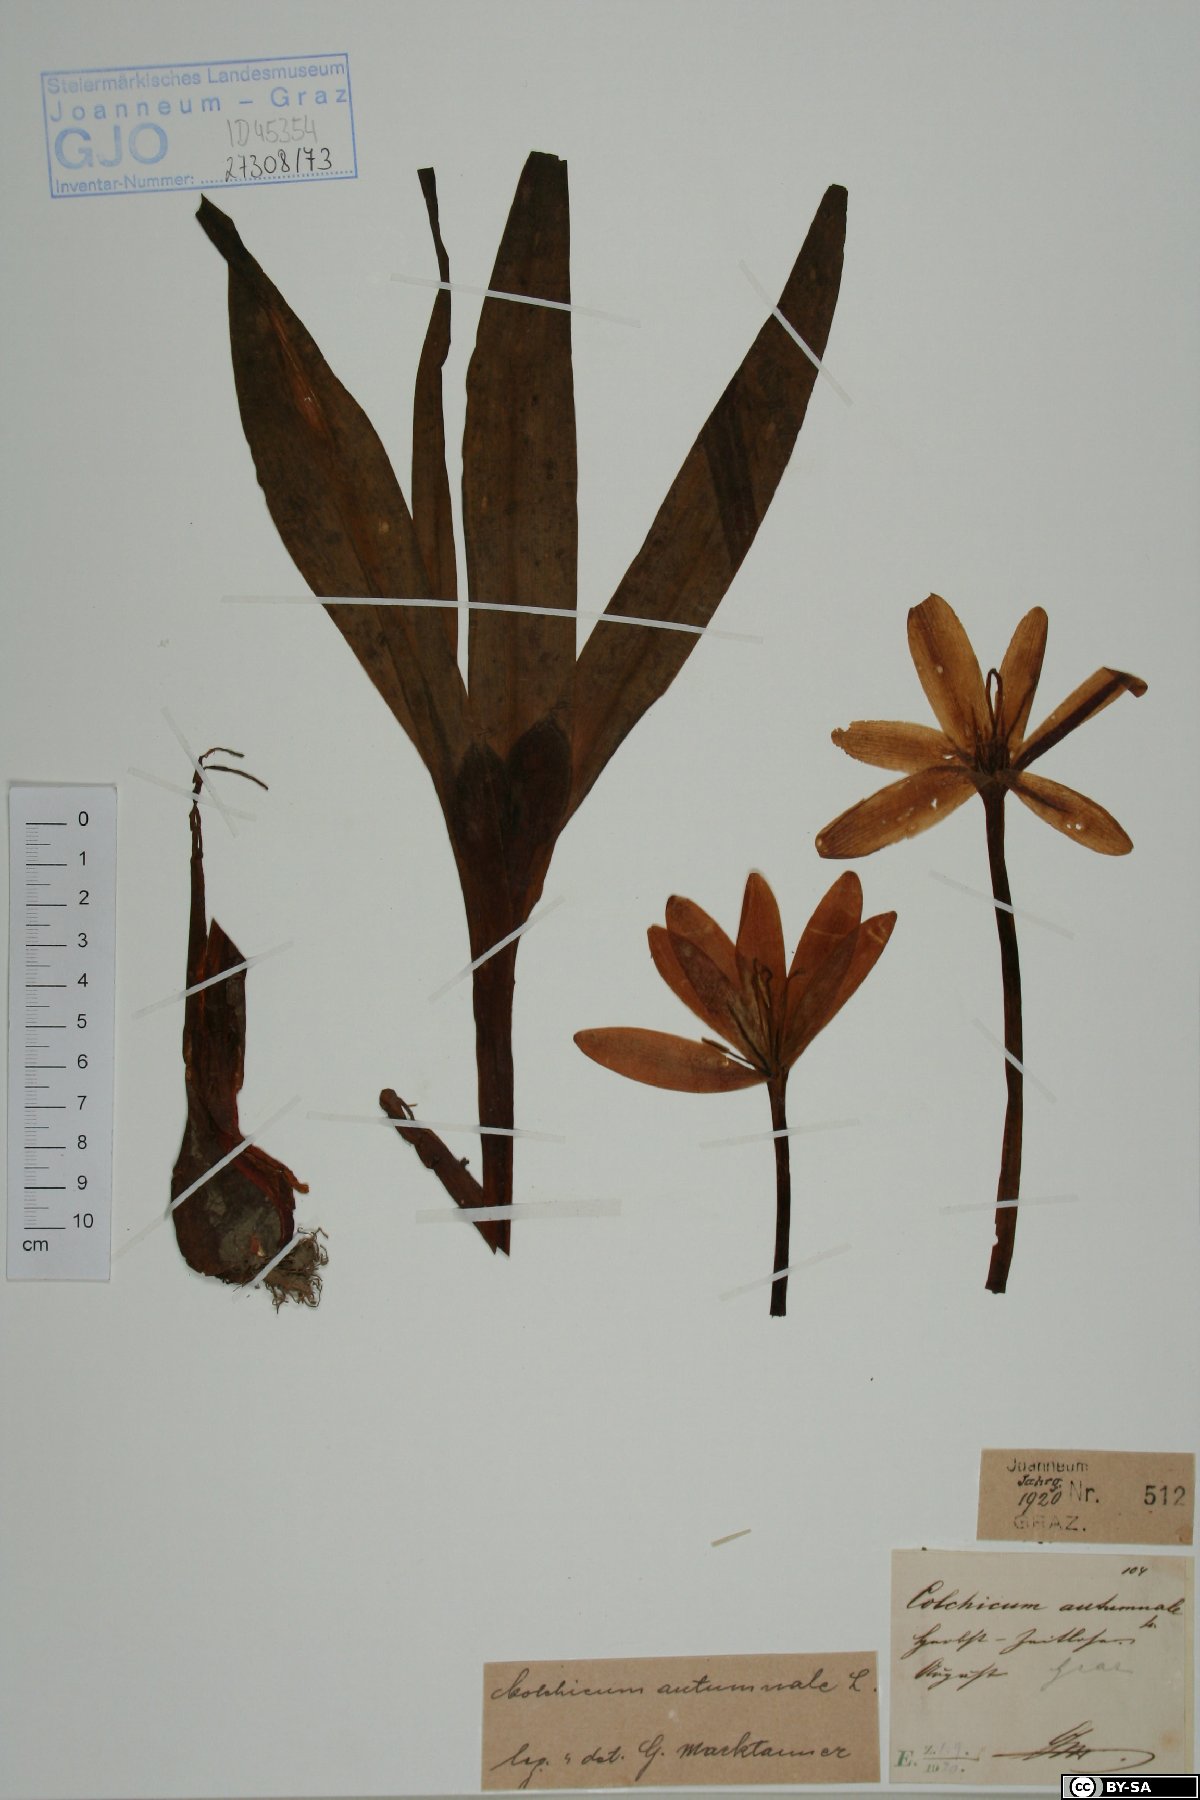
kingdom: Plantae
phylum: Tracheophyta
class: Liliopsida
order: Liliales
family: Colchicaceae
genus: Colchicum
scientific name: Colchicum autumnale
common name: Autumn crocus
